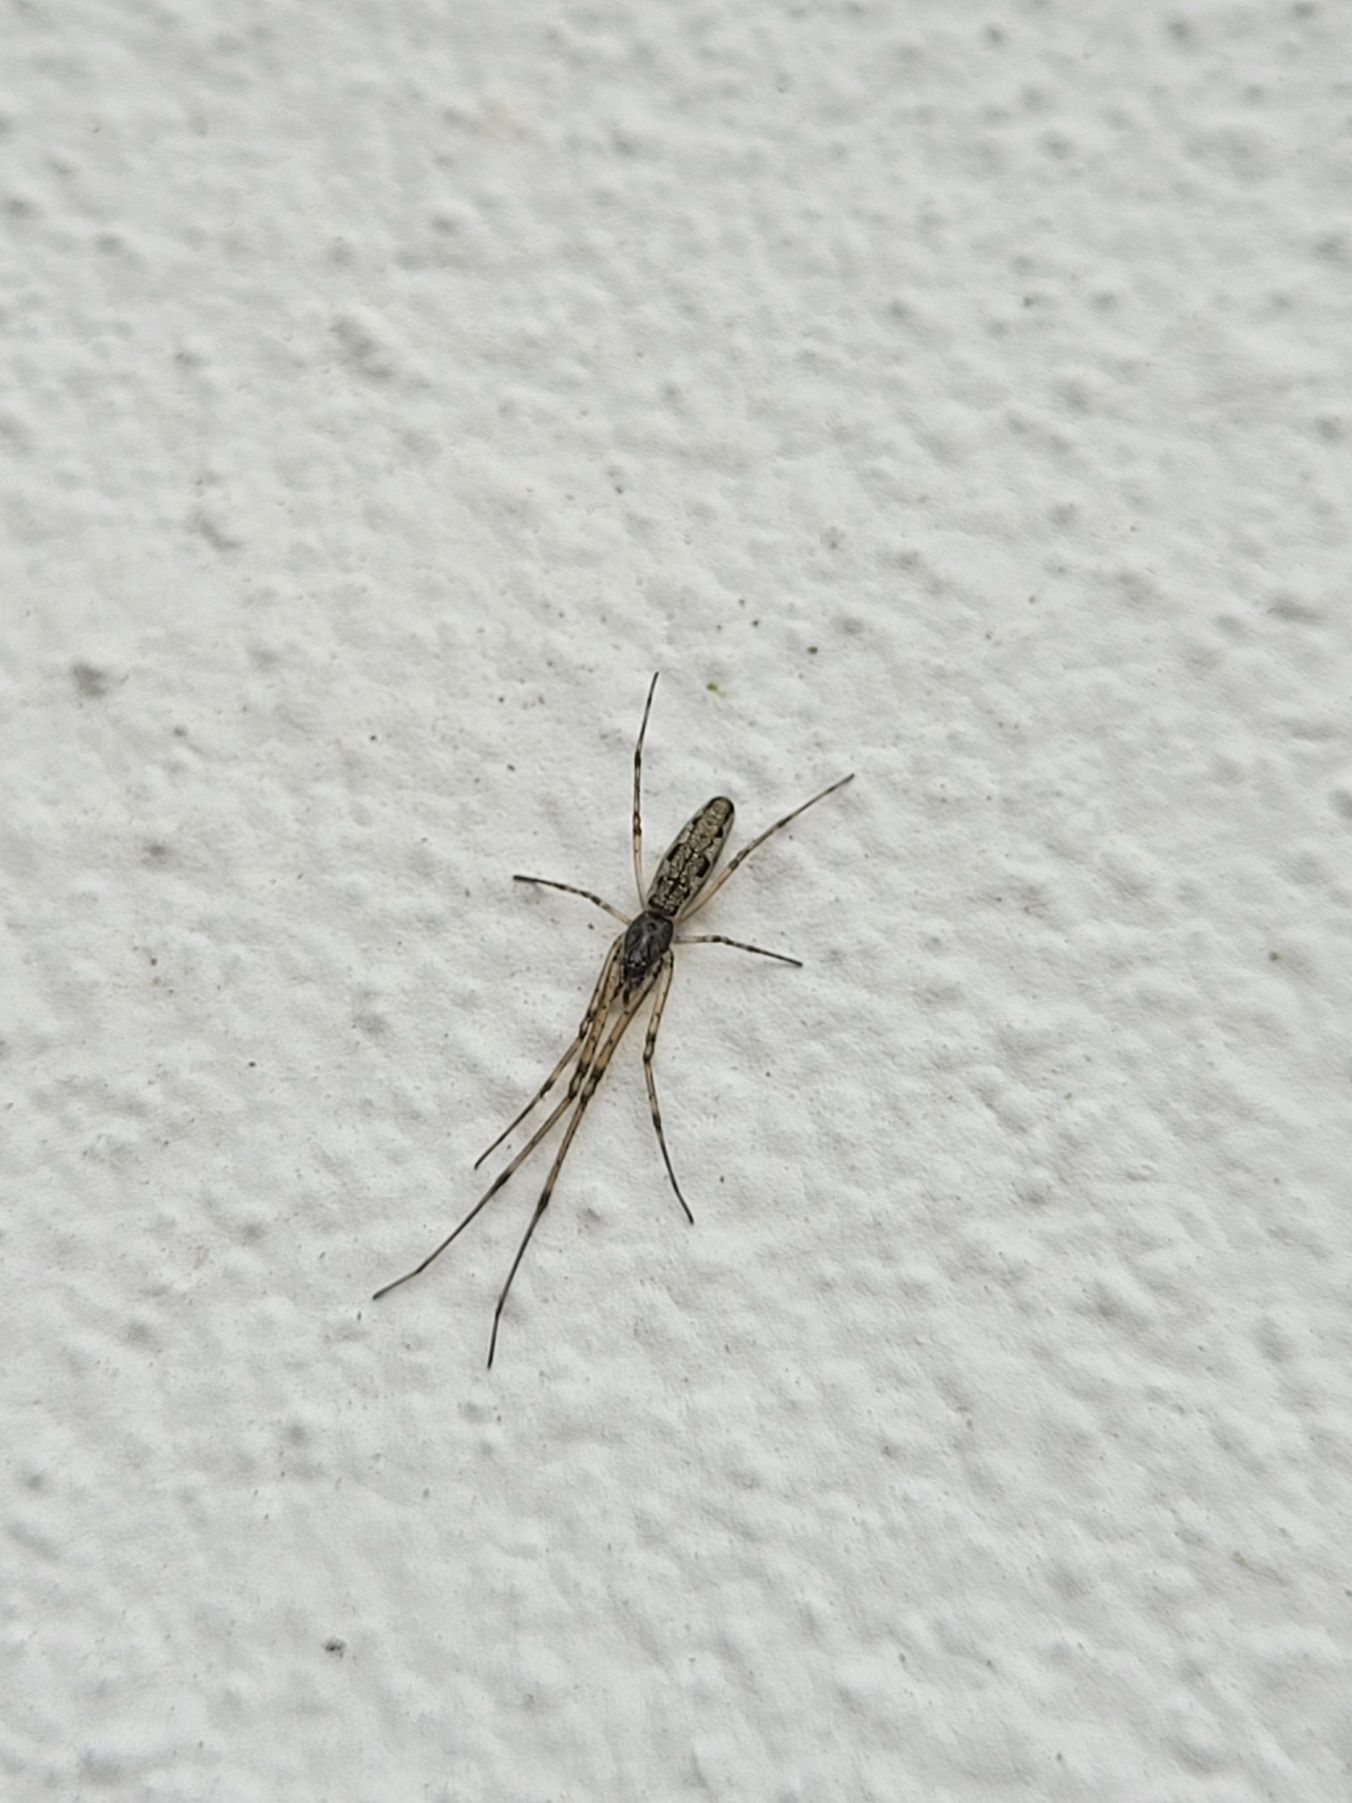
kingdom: Animalia
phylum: Arthropoda
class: Arachnida
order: Araneae
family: Tetragnathidae
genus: Tetragnatha
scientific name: Tetragnatha
